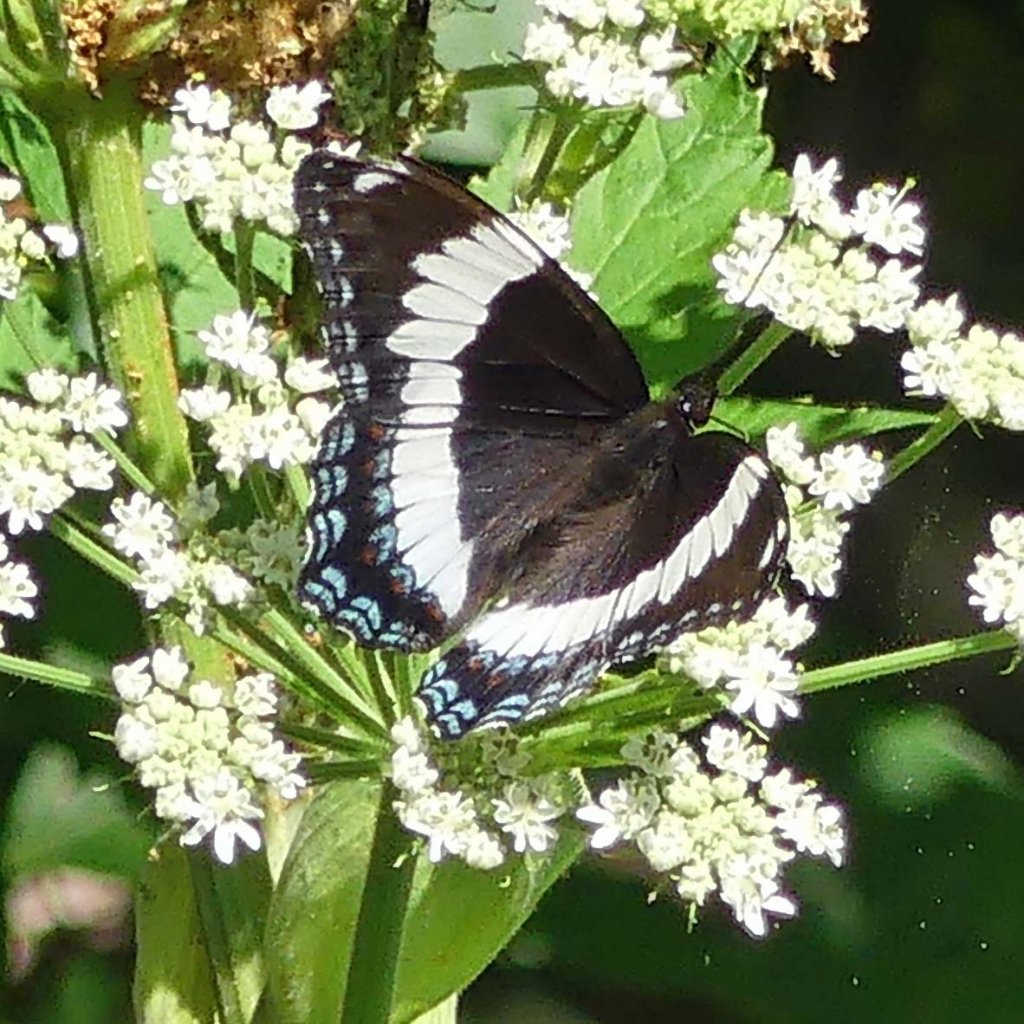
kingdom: Animalia
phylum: Arthropoda
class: Insecta
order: Lepidoptera
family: Nymphalidae
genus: Limenitis
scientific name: Limenitis arthemis
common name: Red-spotted Admiral
